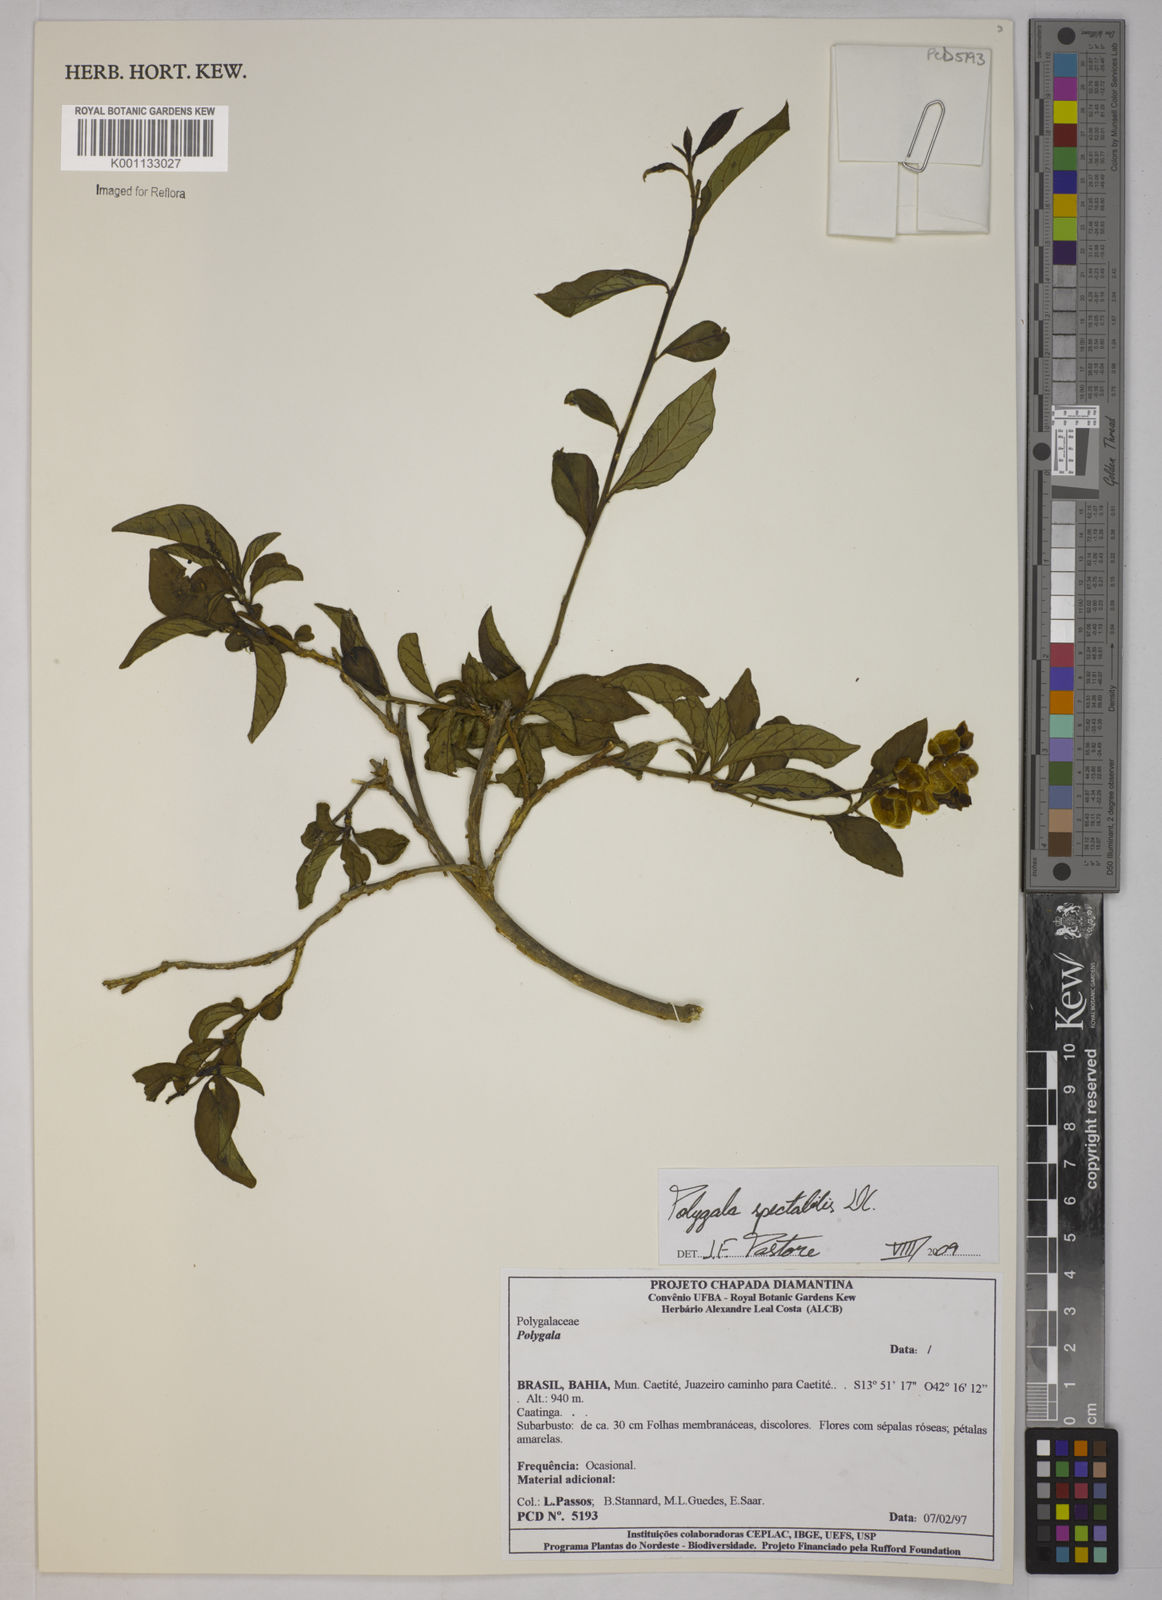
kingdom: Plantae
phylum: Tracheophyta
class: Magnoliopsida
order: Fabales
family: Polygalaceae
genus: Polygala
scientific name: Polygala
